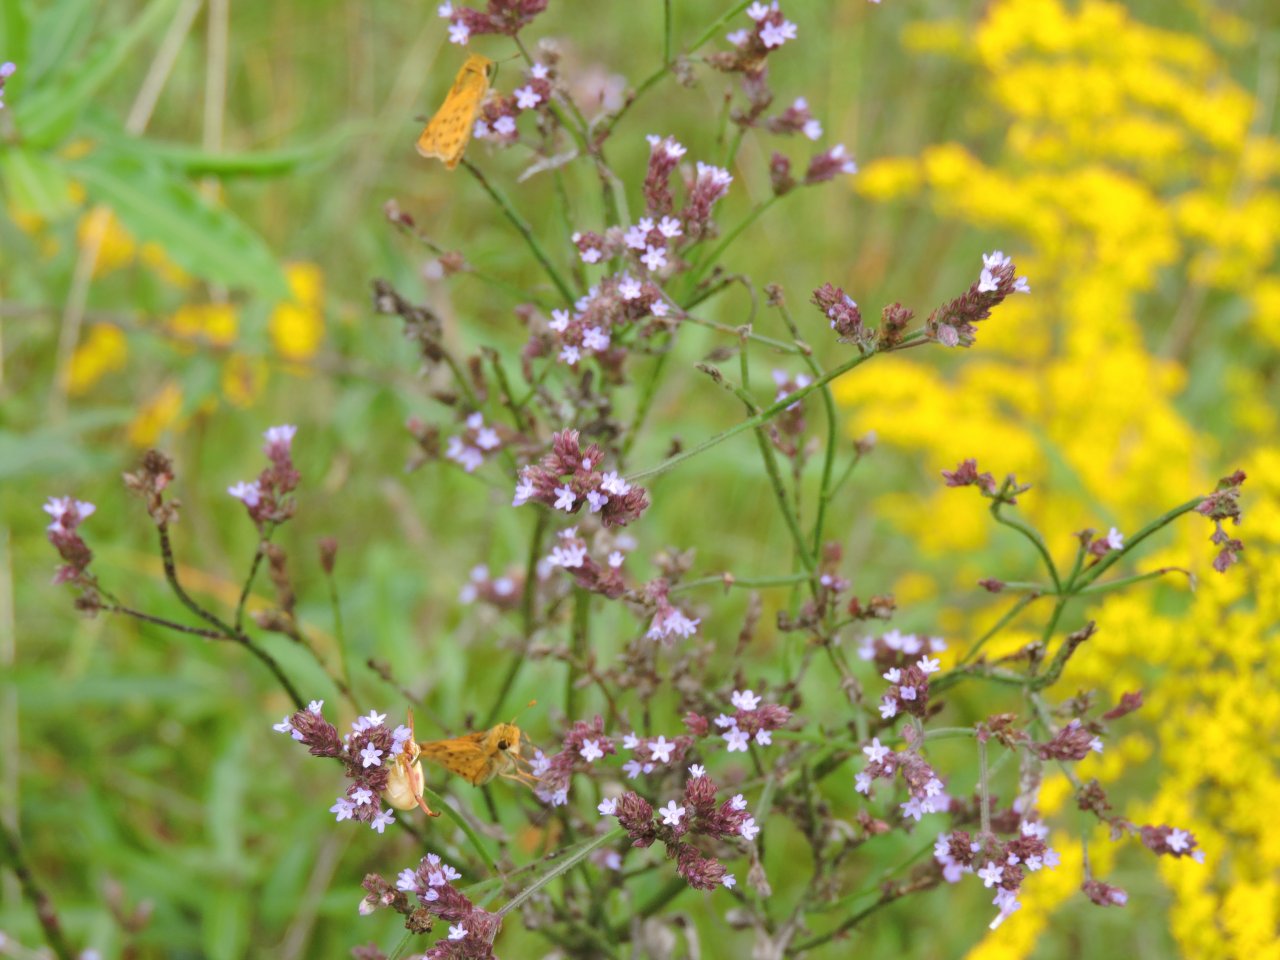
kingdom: Animalia
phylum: Arthropoda
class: Insecta
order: Lepidoptera
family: Hesperiidae
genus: Hylephila
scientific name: Hylephila phyleus
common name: Fiery Skipper
